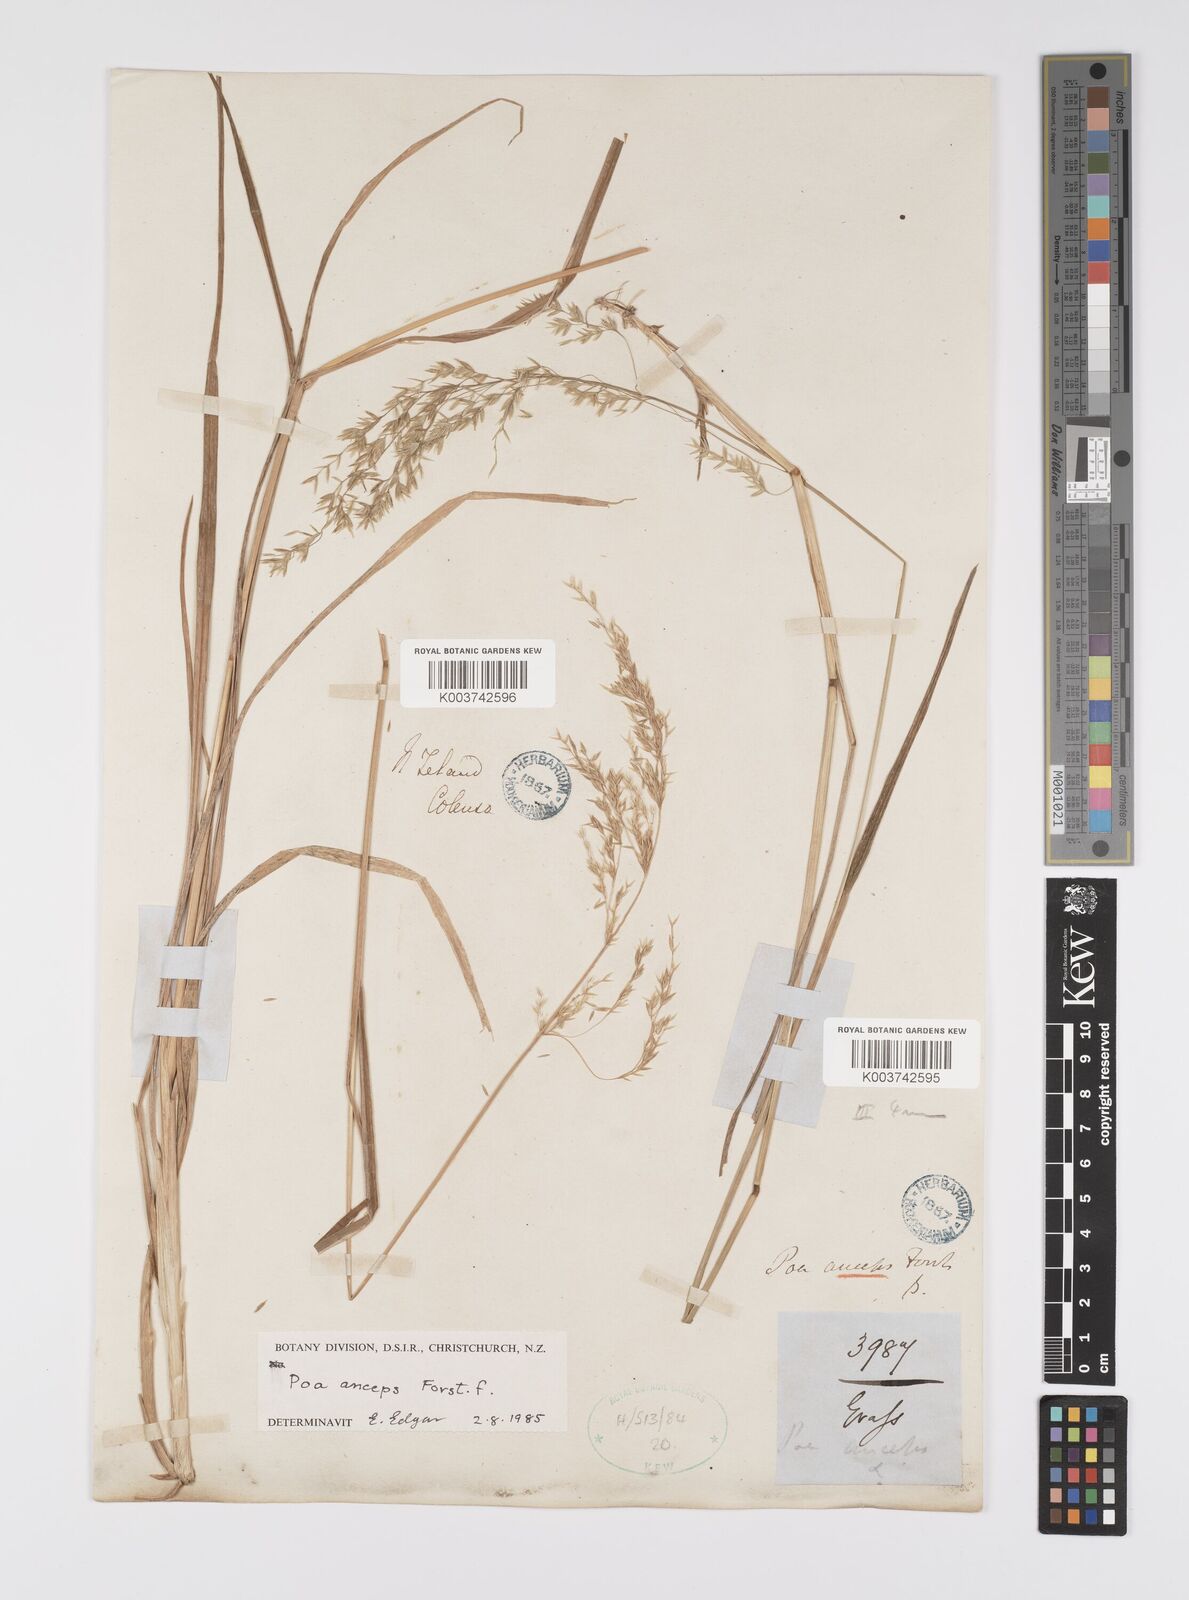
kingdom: Plantae
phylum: Tracheophyta
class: Liliopsida
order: Poales
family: Poaceae
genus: Poa
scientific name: Poa anceps
